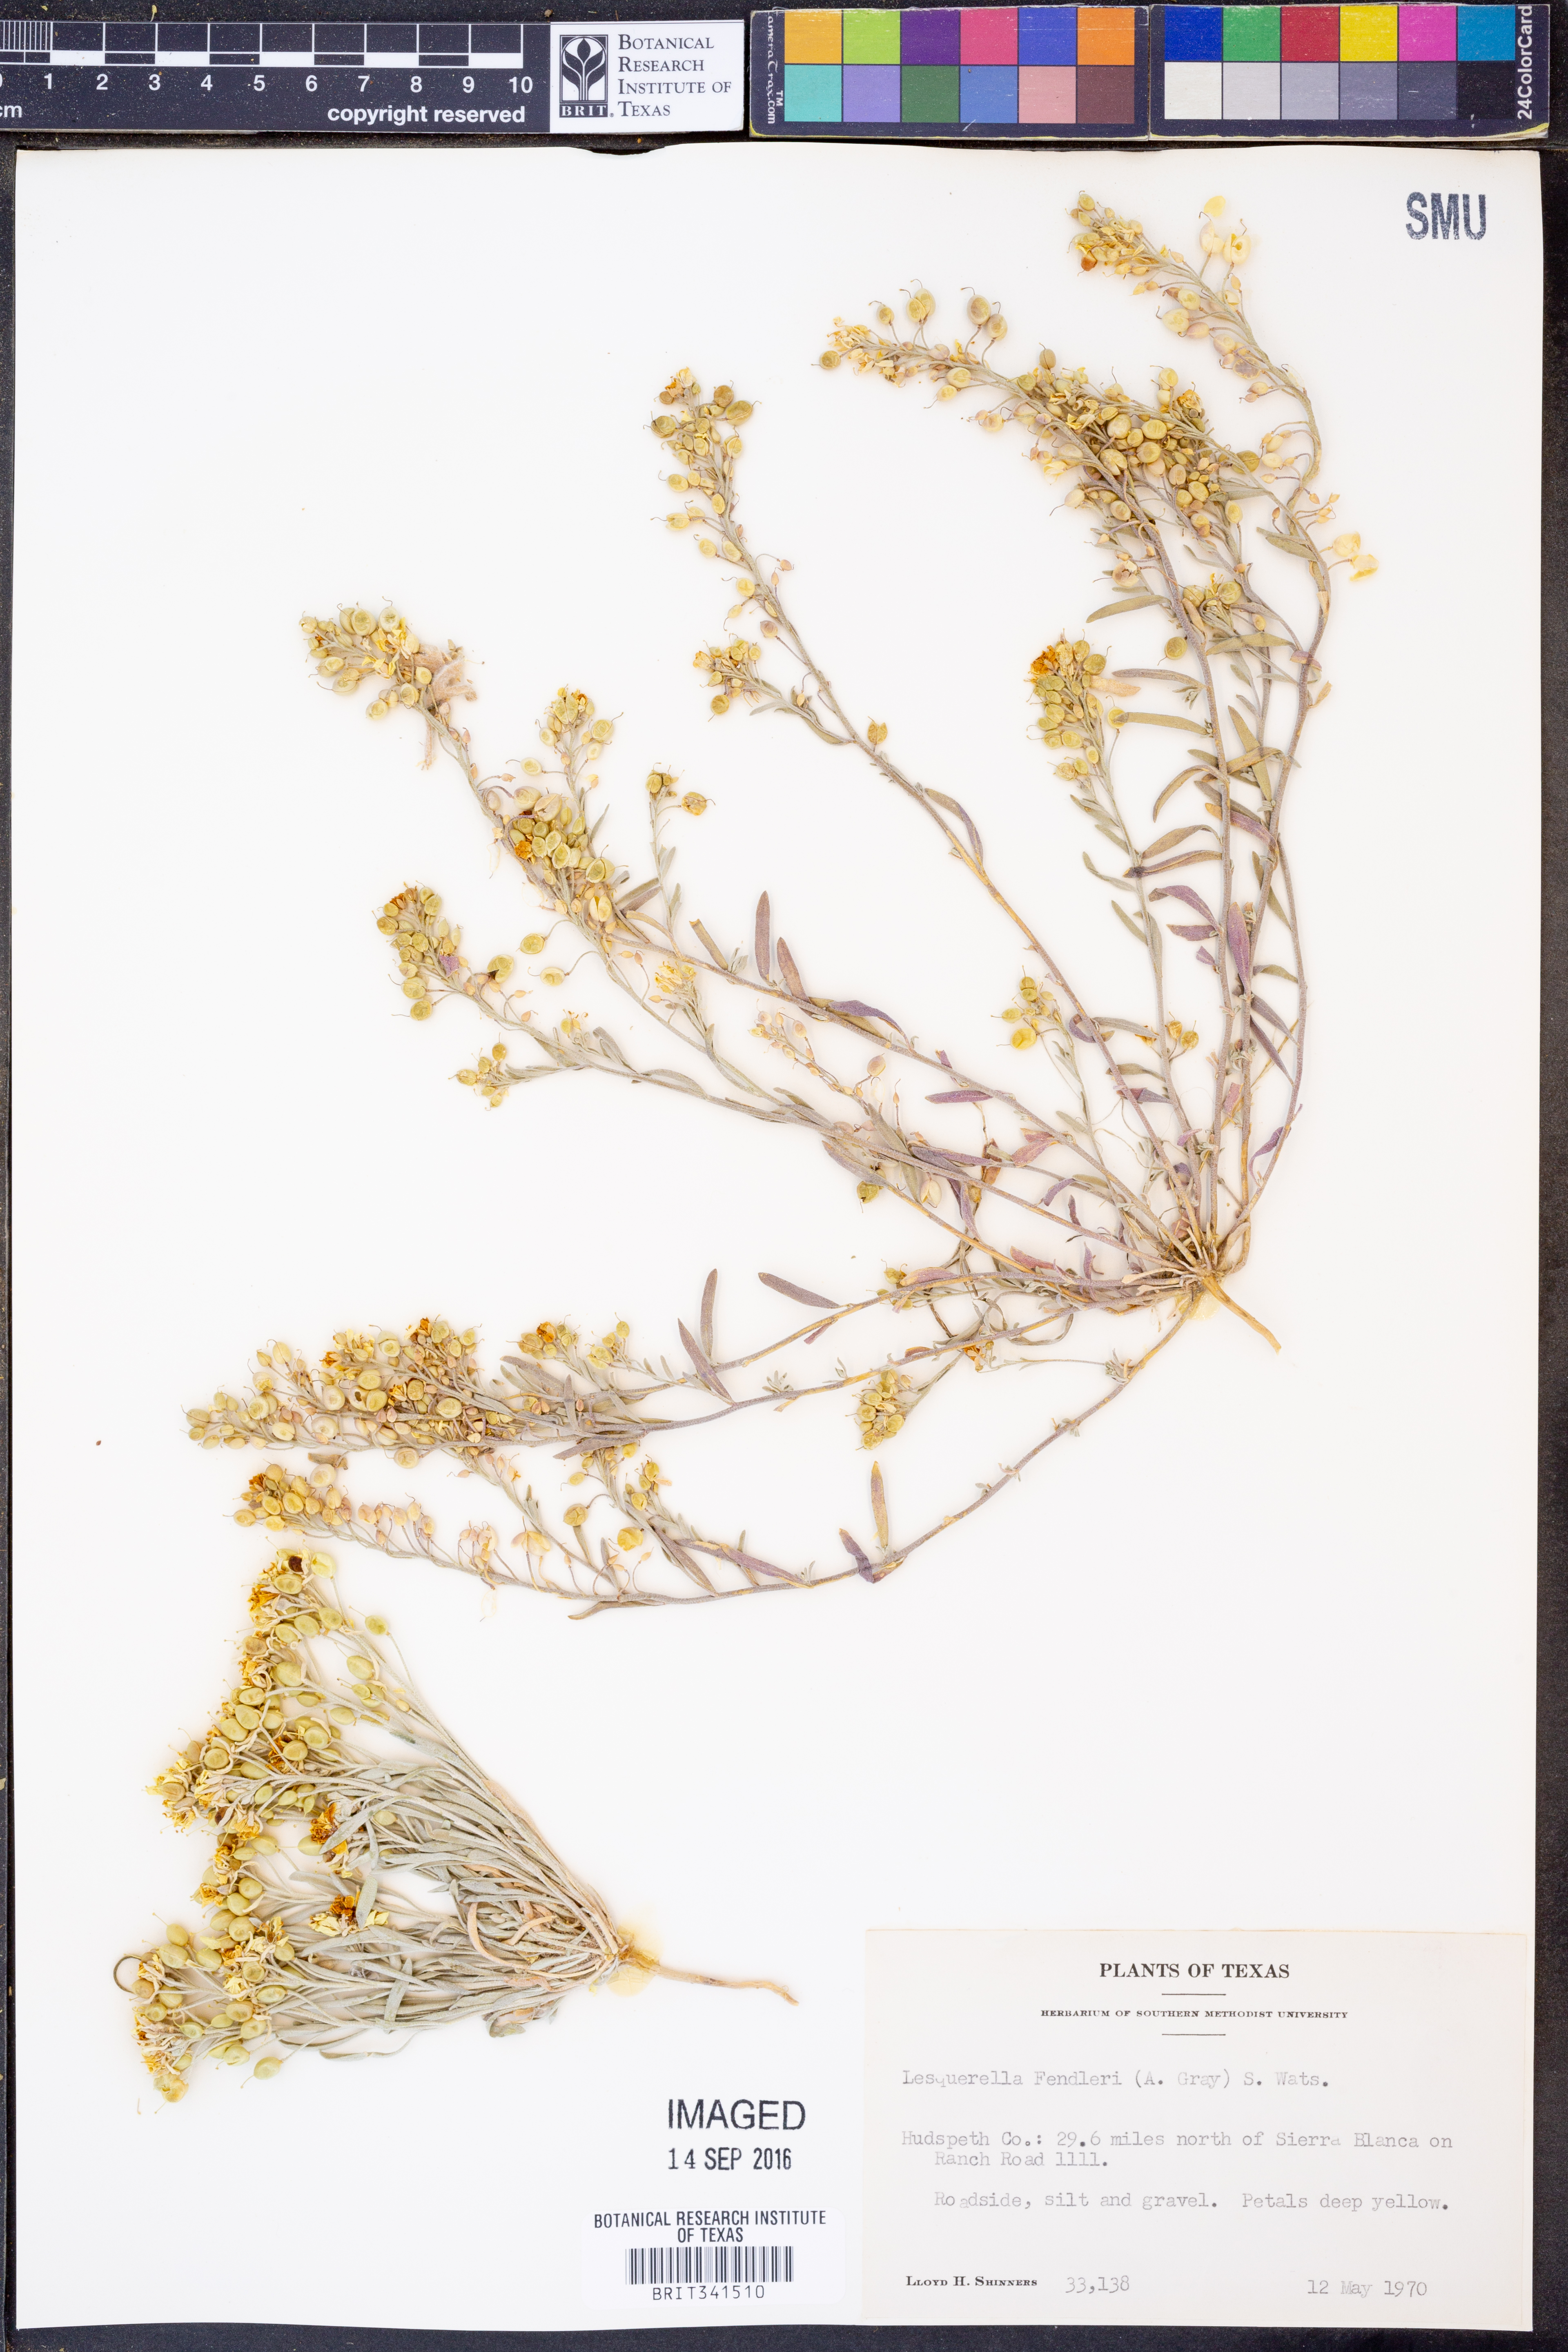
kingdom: Plantae
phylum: Tracheophyta
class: Magnoliopsida
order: Brassicales
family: Brassicaceae
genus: Physaria
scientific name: Physaria fendleri
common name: Fendler's bladderpod
